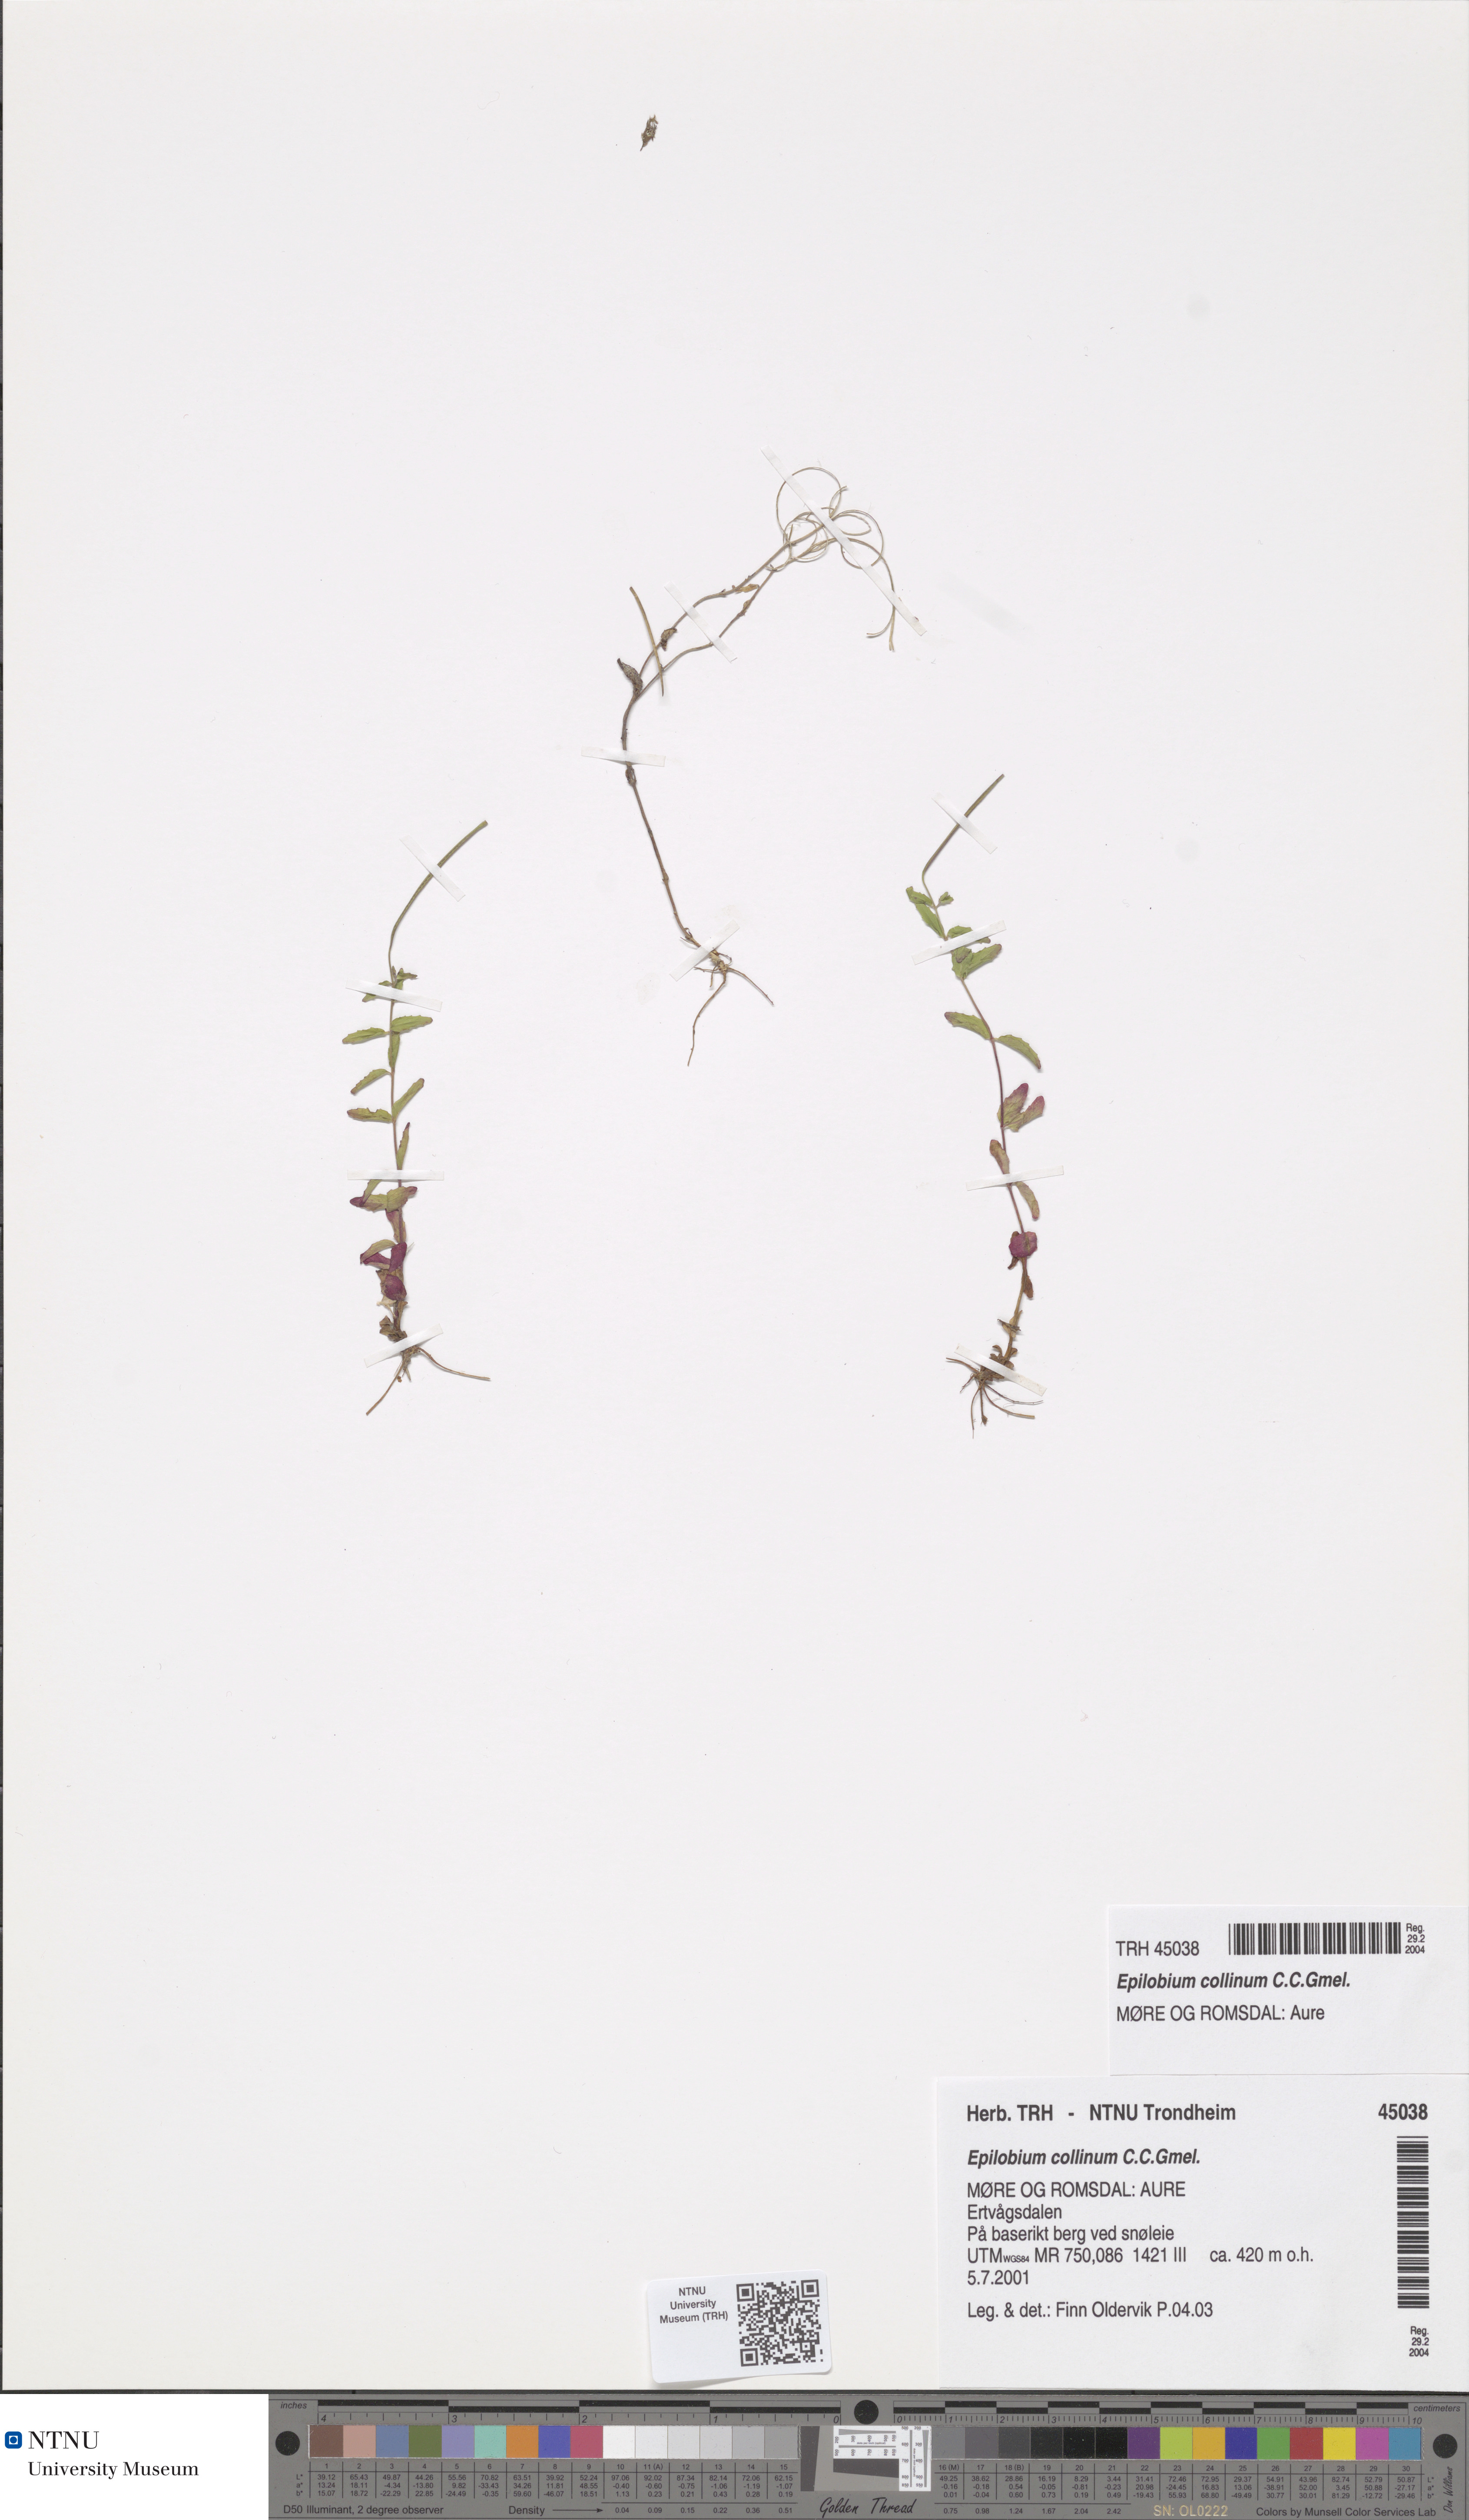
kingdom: Plantae
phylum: Tracheophyta
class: Magnoliopsida
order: Myrtales
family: Onagraceae
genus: Epilobium
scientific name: Epilobium collinum
